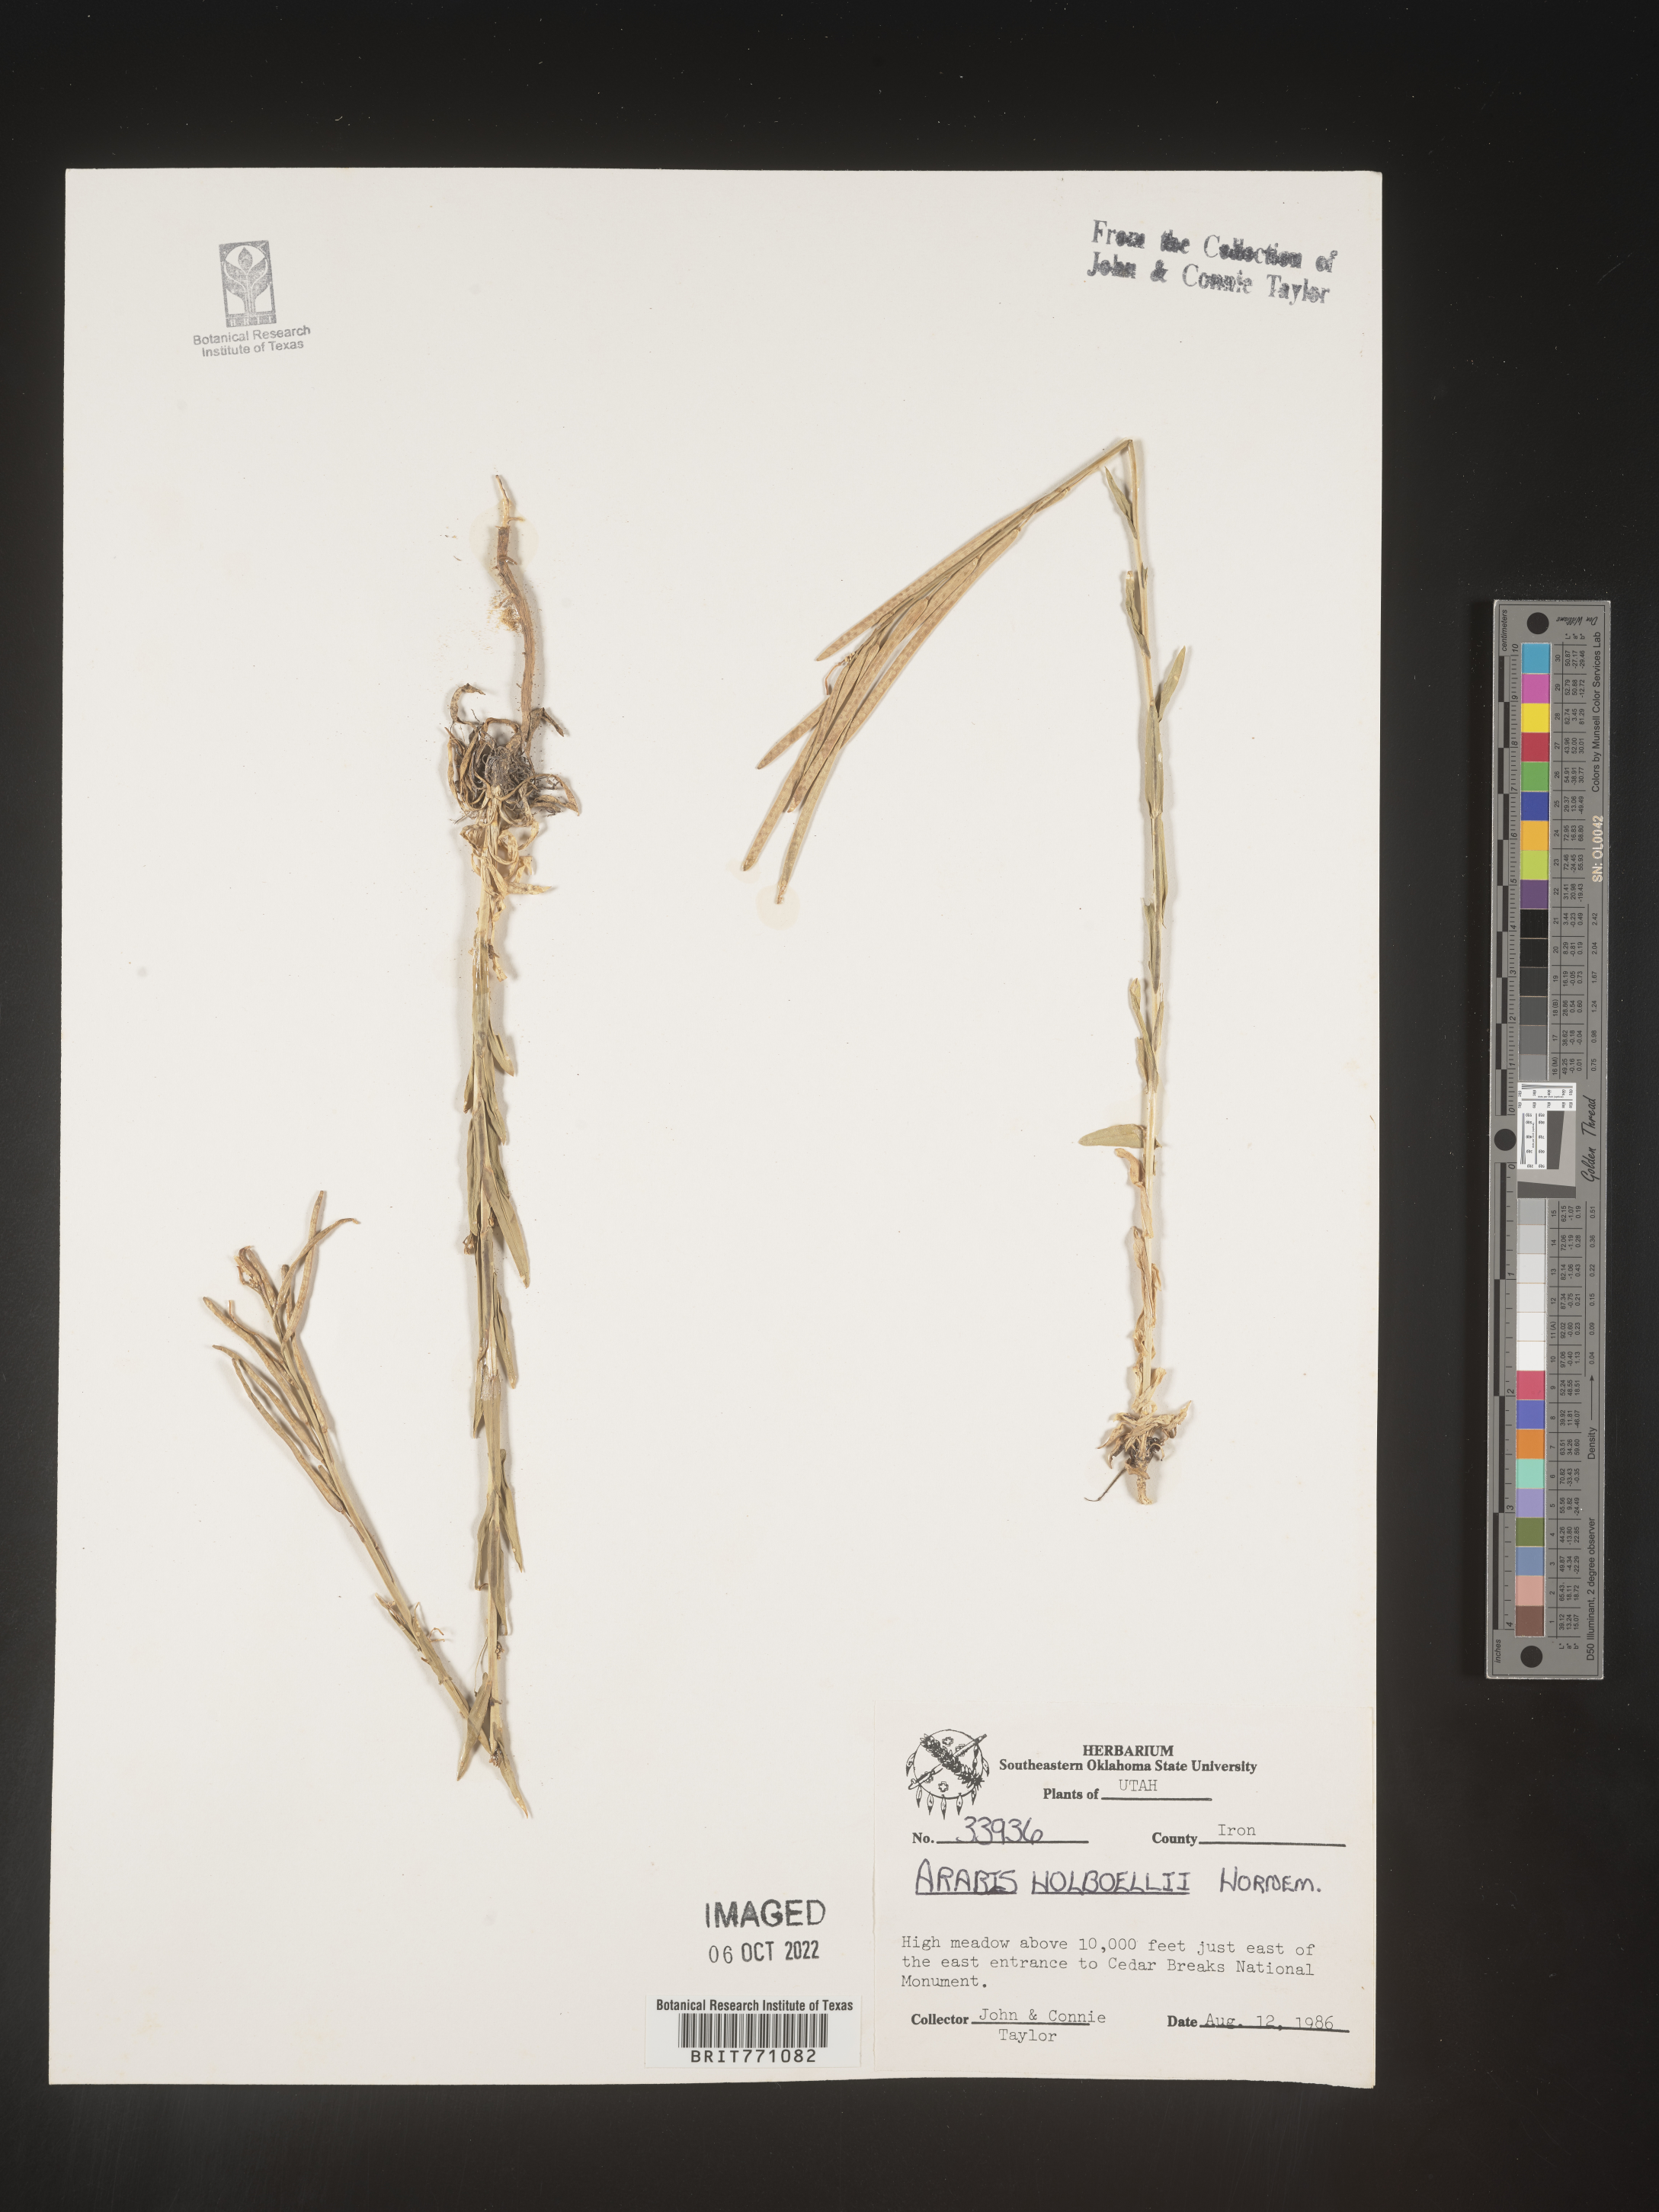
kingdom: Plantae
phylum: Tracheophyta
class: Magnoliopsida
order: Brassicales
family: Brassicaceae
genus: Boechera
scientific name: Boechera holboellii
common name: Holboell's rockcress
